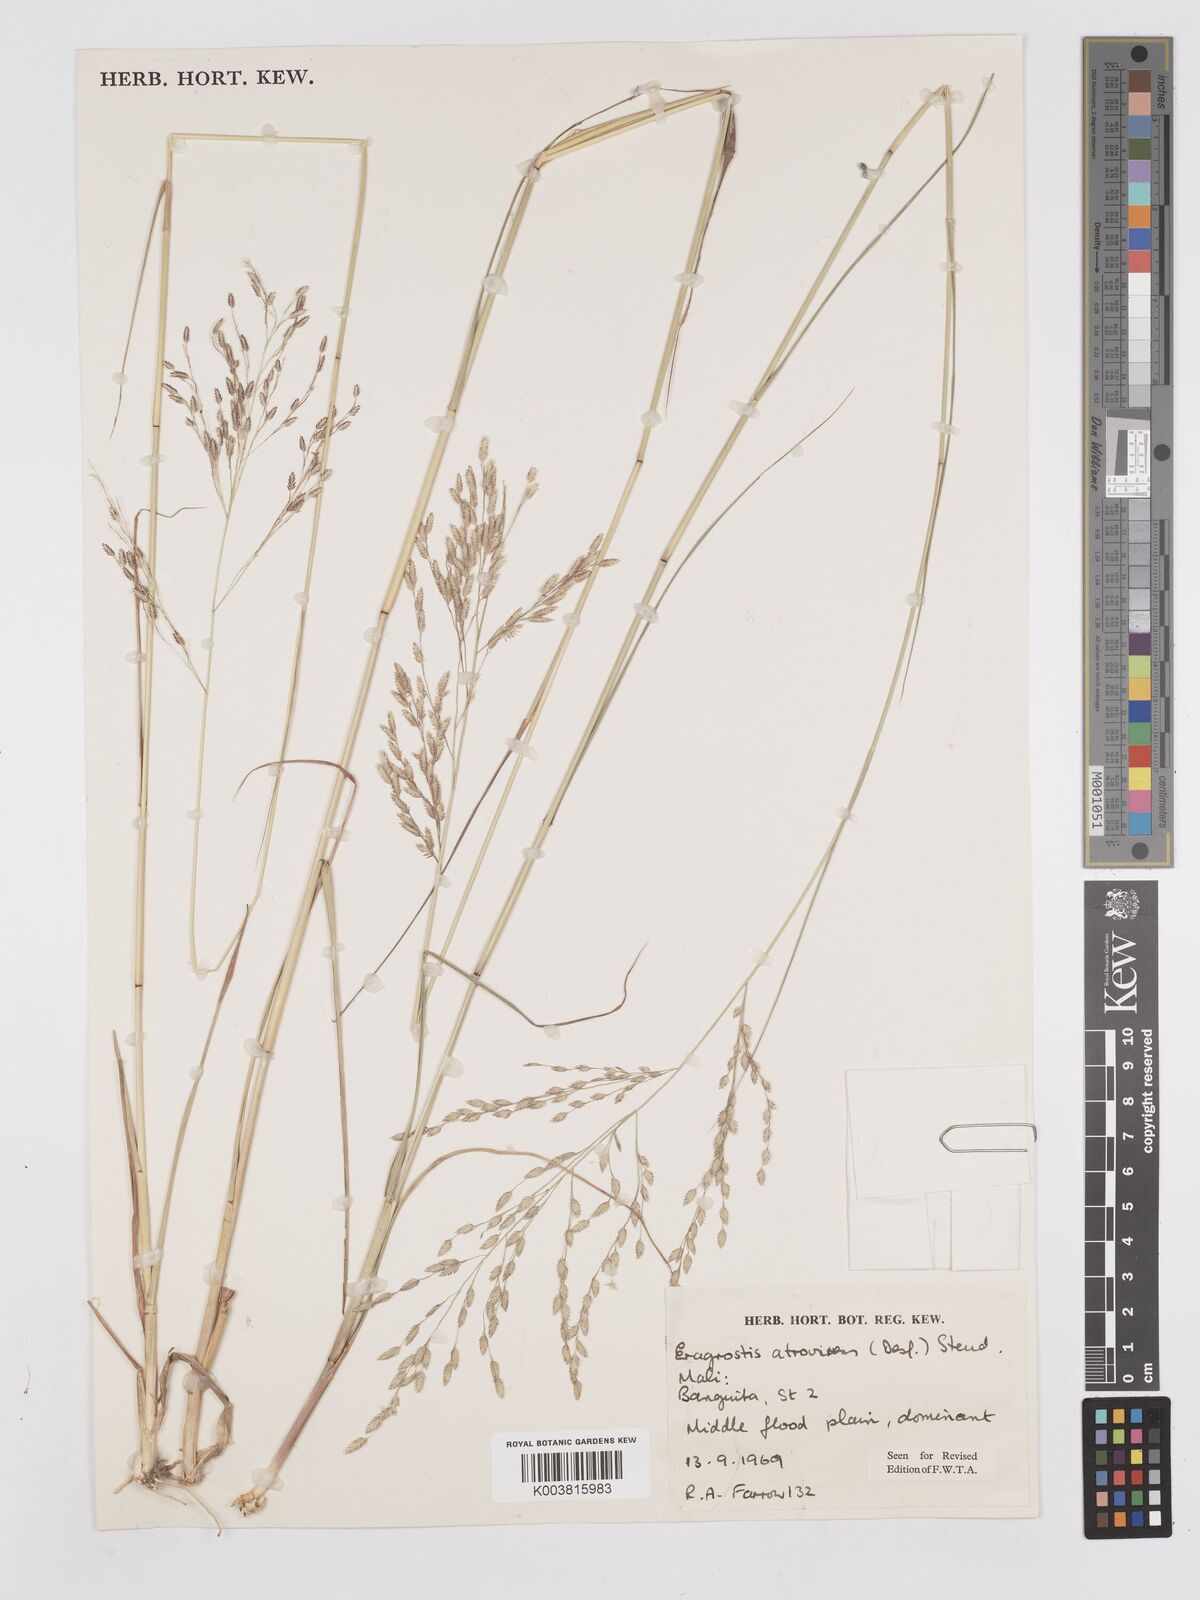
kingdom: Plantae
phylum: Tracheophyta
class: Liliopsida
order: Poales
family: Poaceae
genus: Eragrostis
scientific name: Eragrostis atrovirens
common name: Thalia lovegrass
